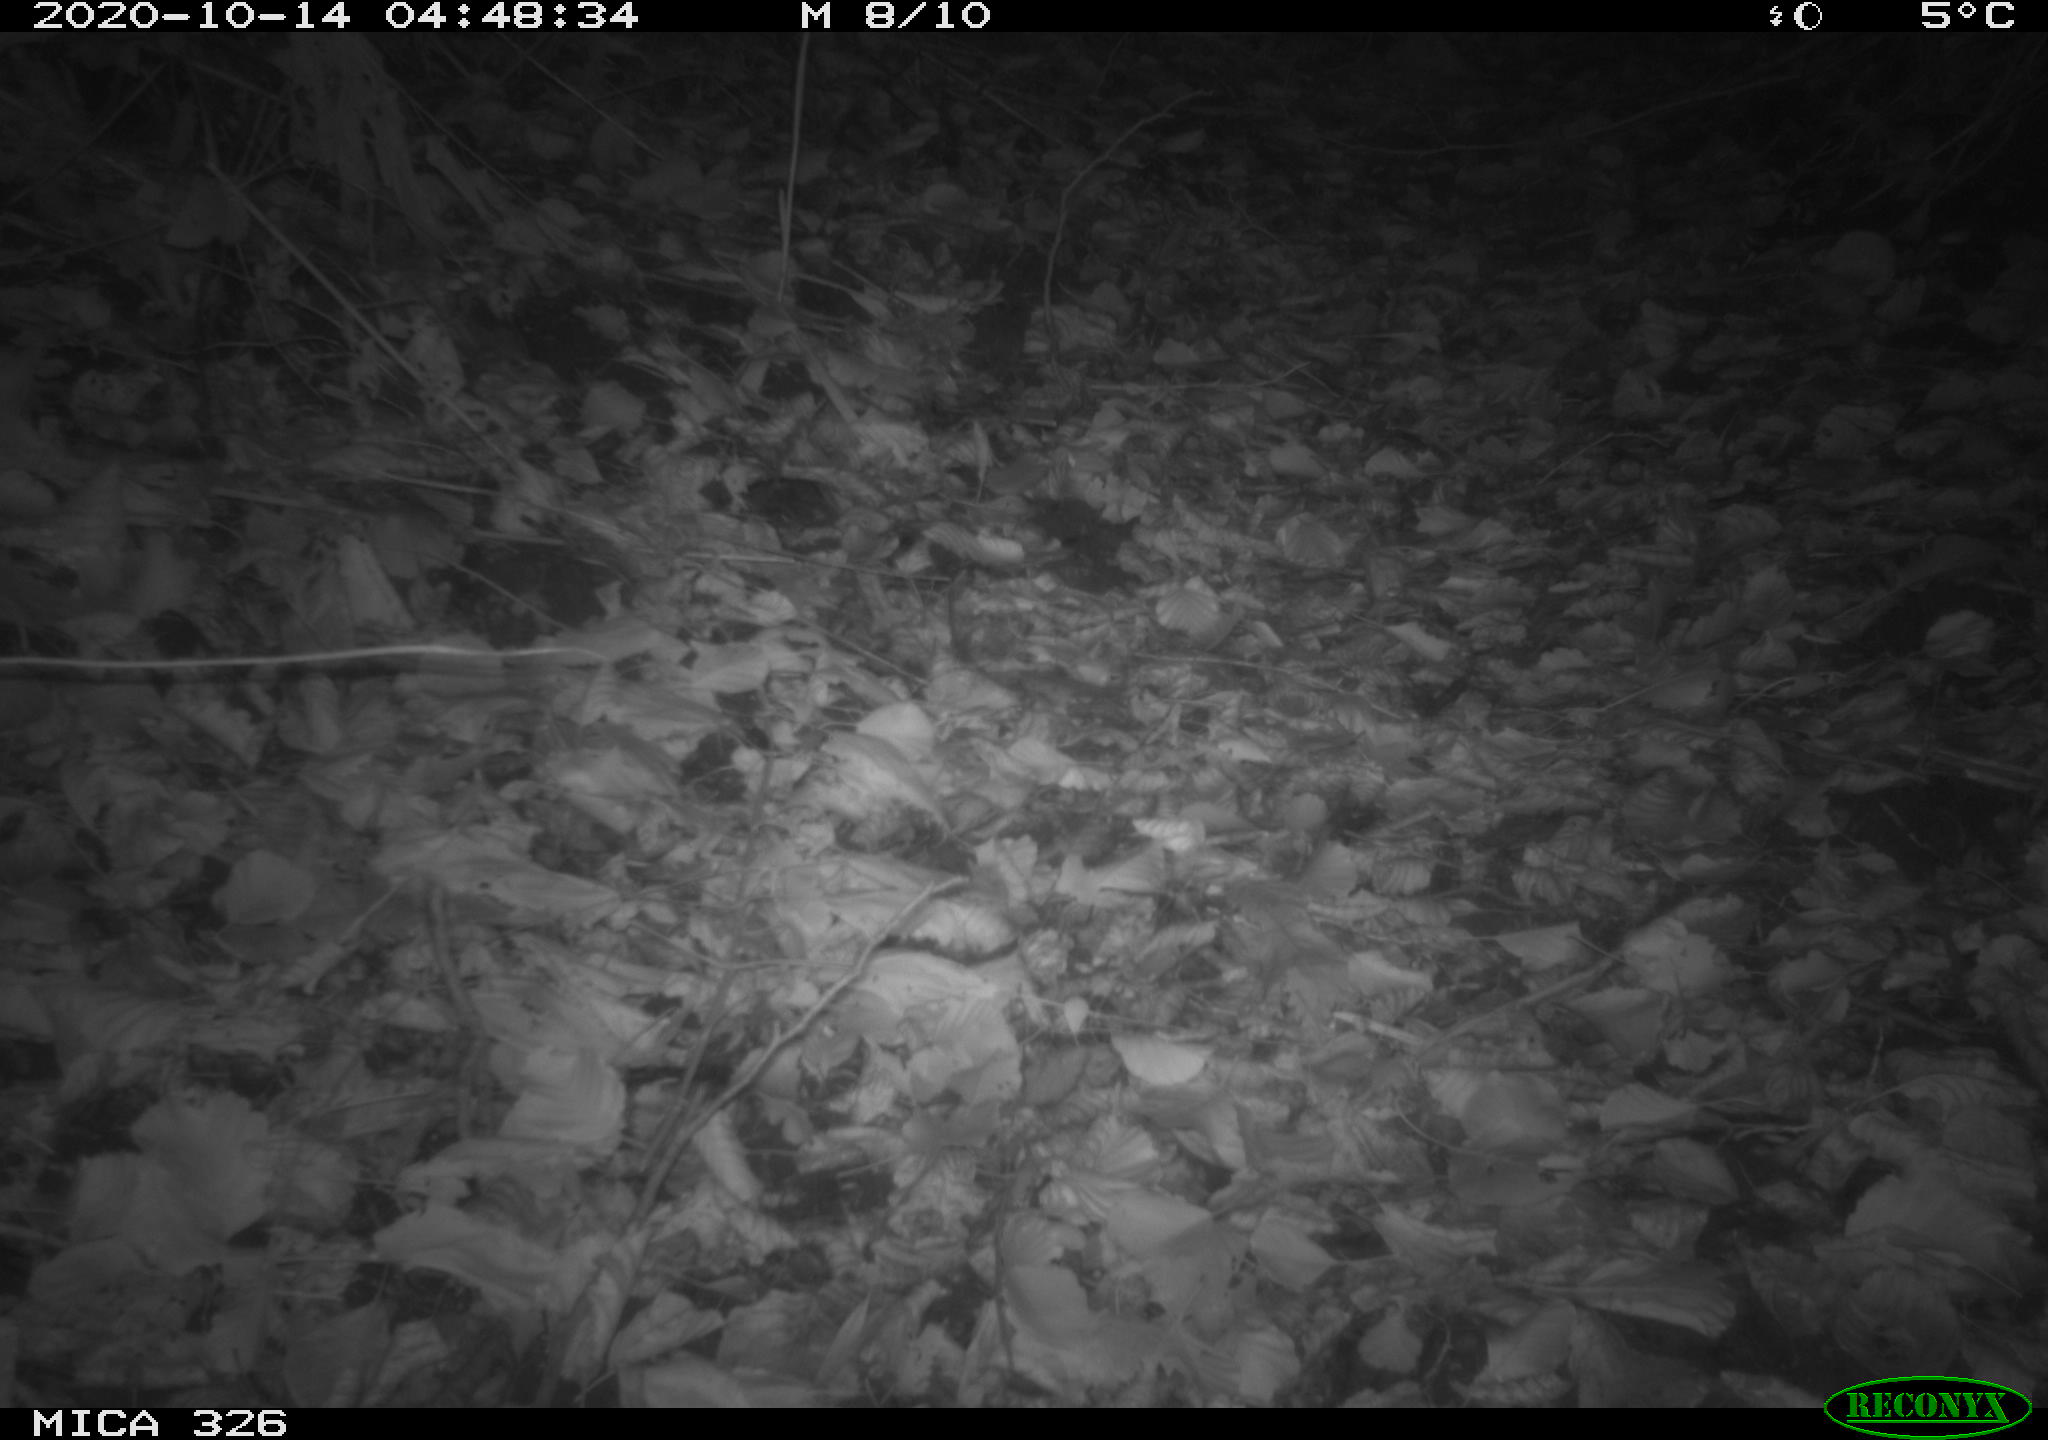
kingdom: Animalia
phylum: Chordata
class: Mammalia
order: Carnivora
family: Mustelidae
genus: Lutra
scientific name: Lutra lutra
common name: European otter
